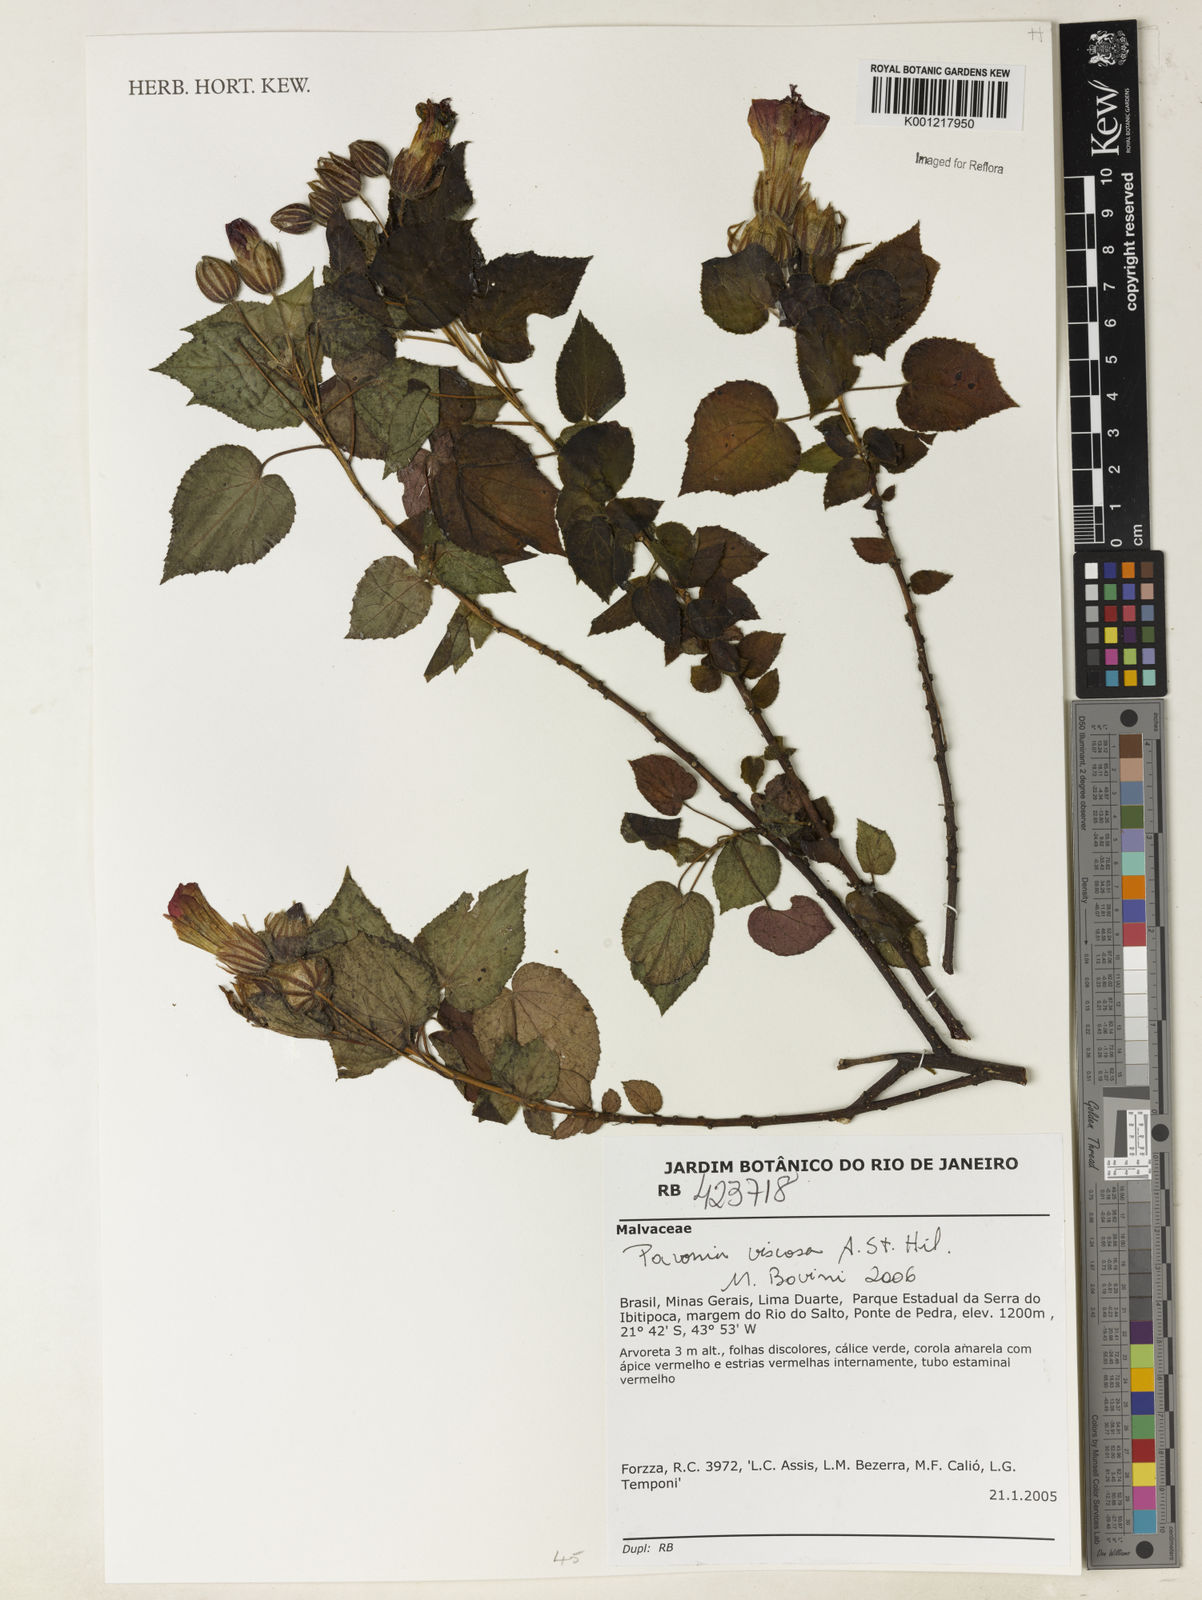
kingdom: Plantae
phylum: Tracheophyta
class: Magnoliopsida
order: Malvales
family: Malvaceae
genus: Pavonia
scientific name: Pavonia viscosa
